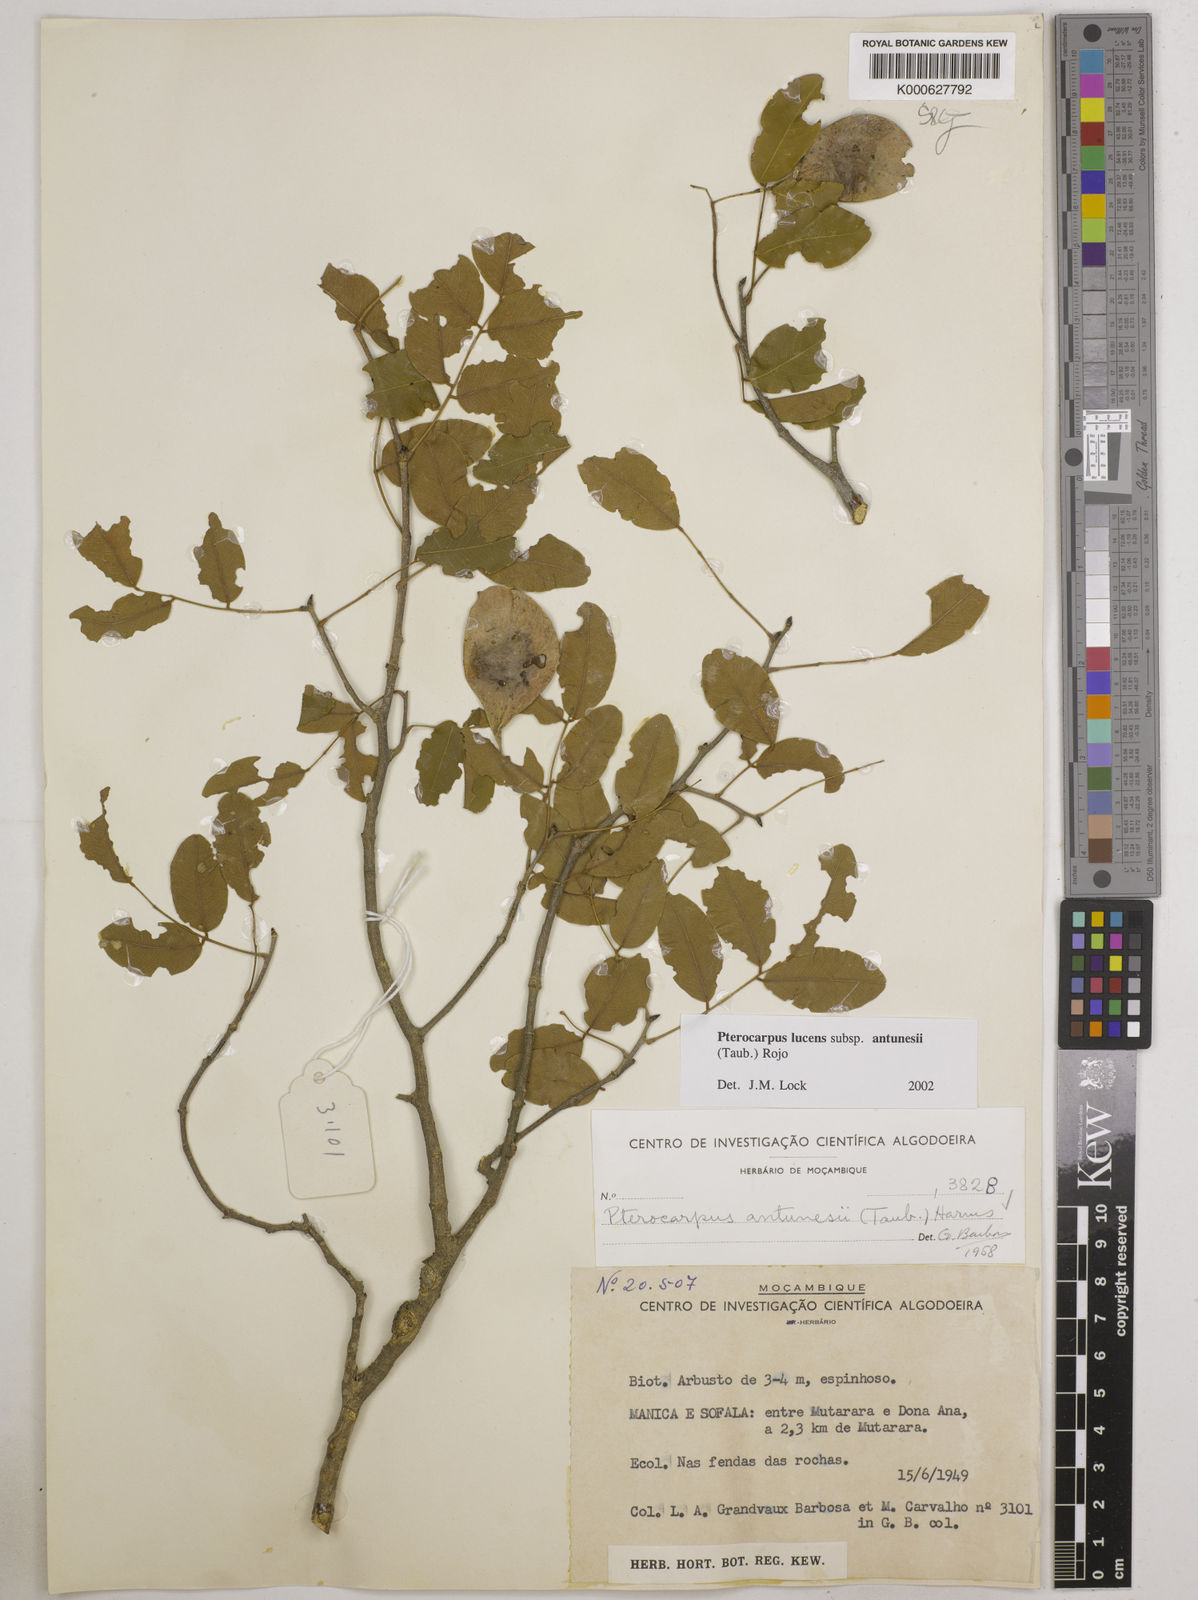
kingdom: Plantae
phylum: Tracheophyta
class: Magnoliopsida
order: Fabales
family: Fabaceae
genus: Pterocarpus
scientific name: Pterocarpus lucens
